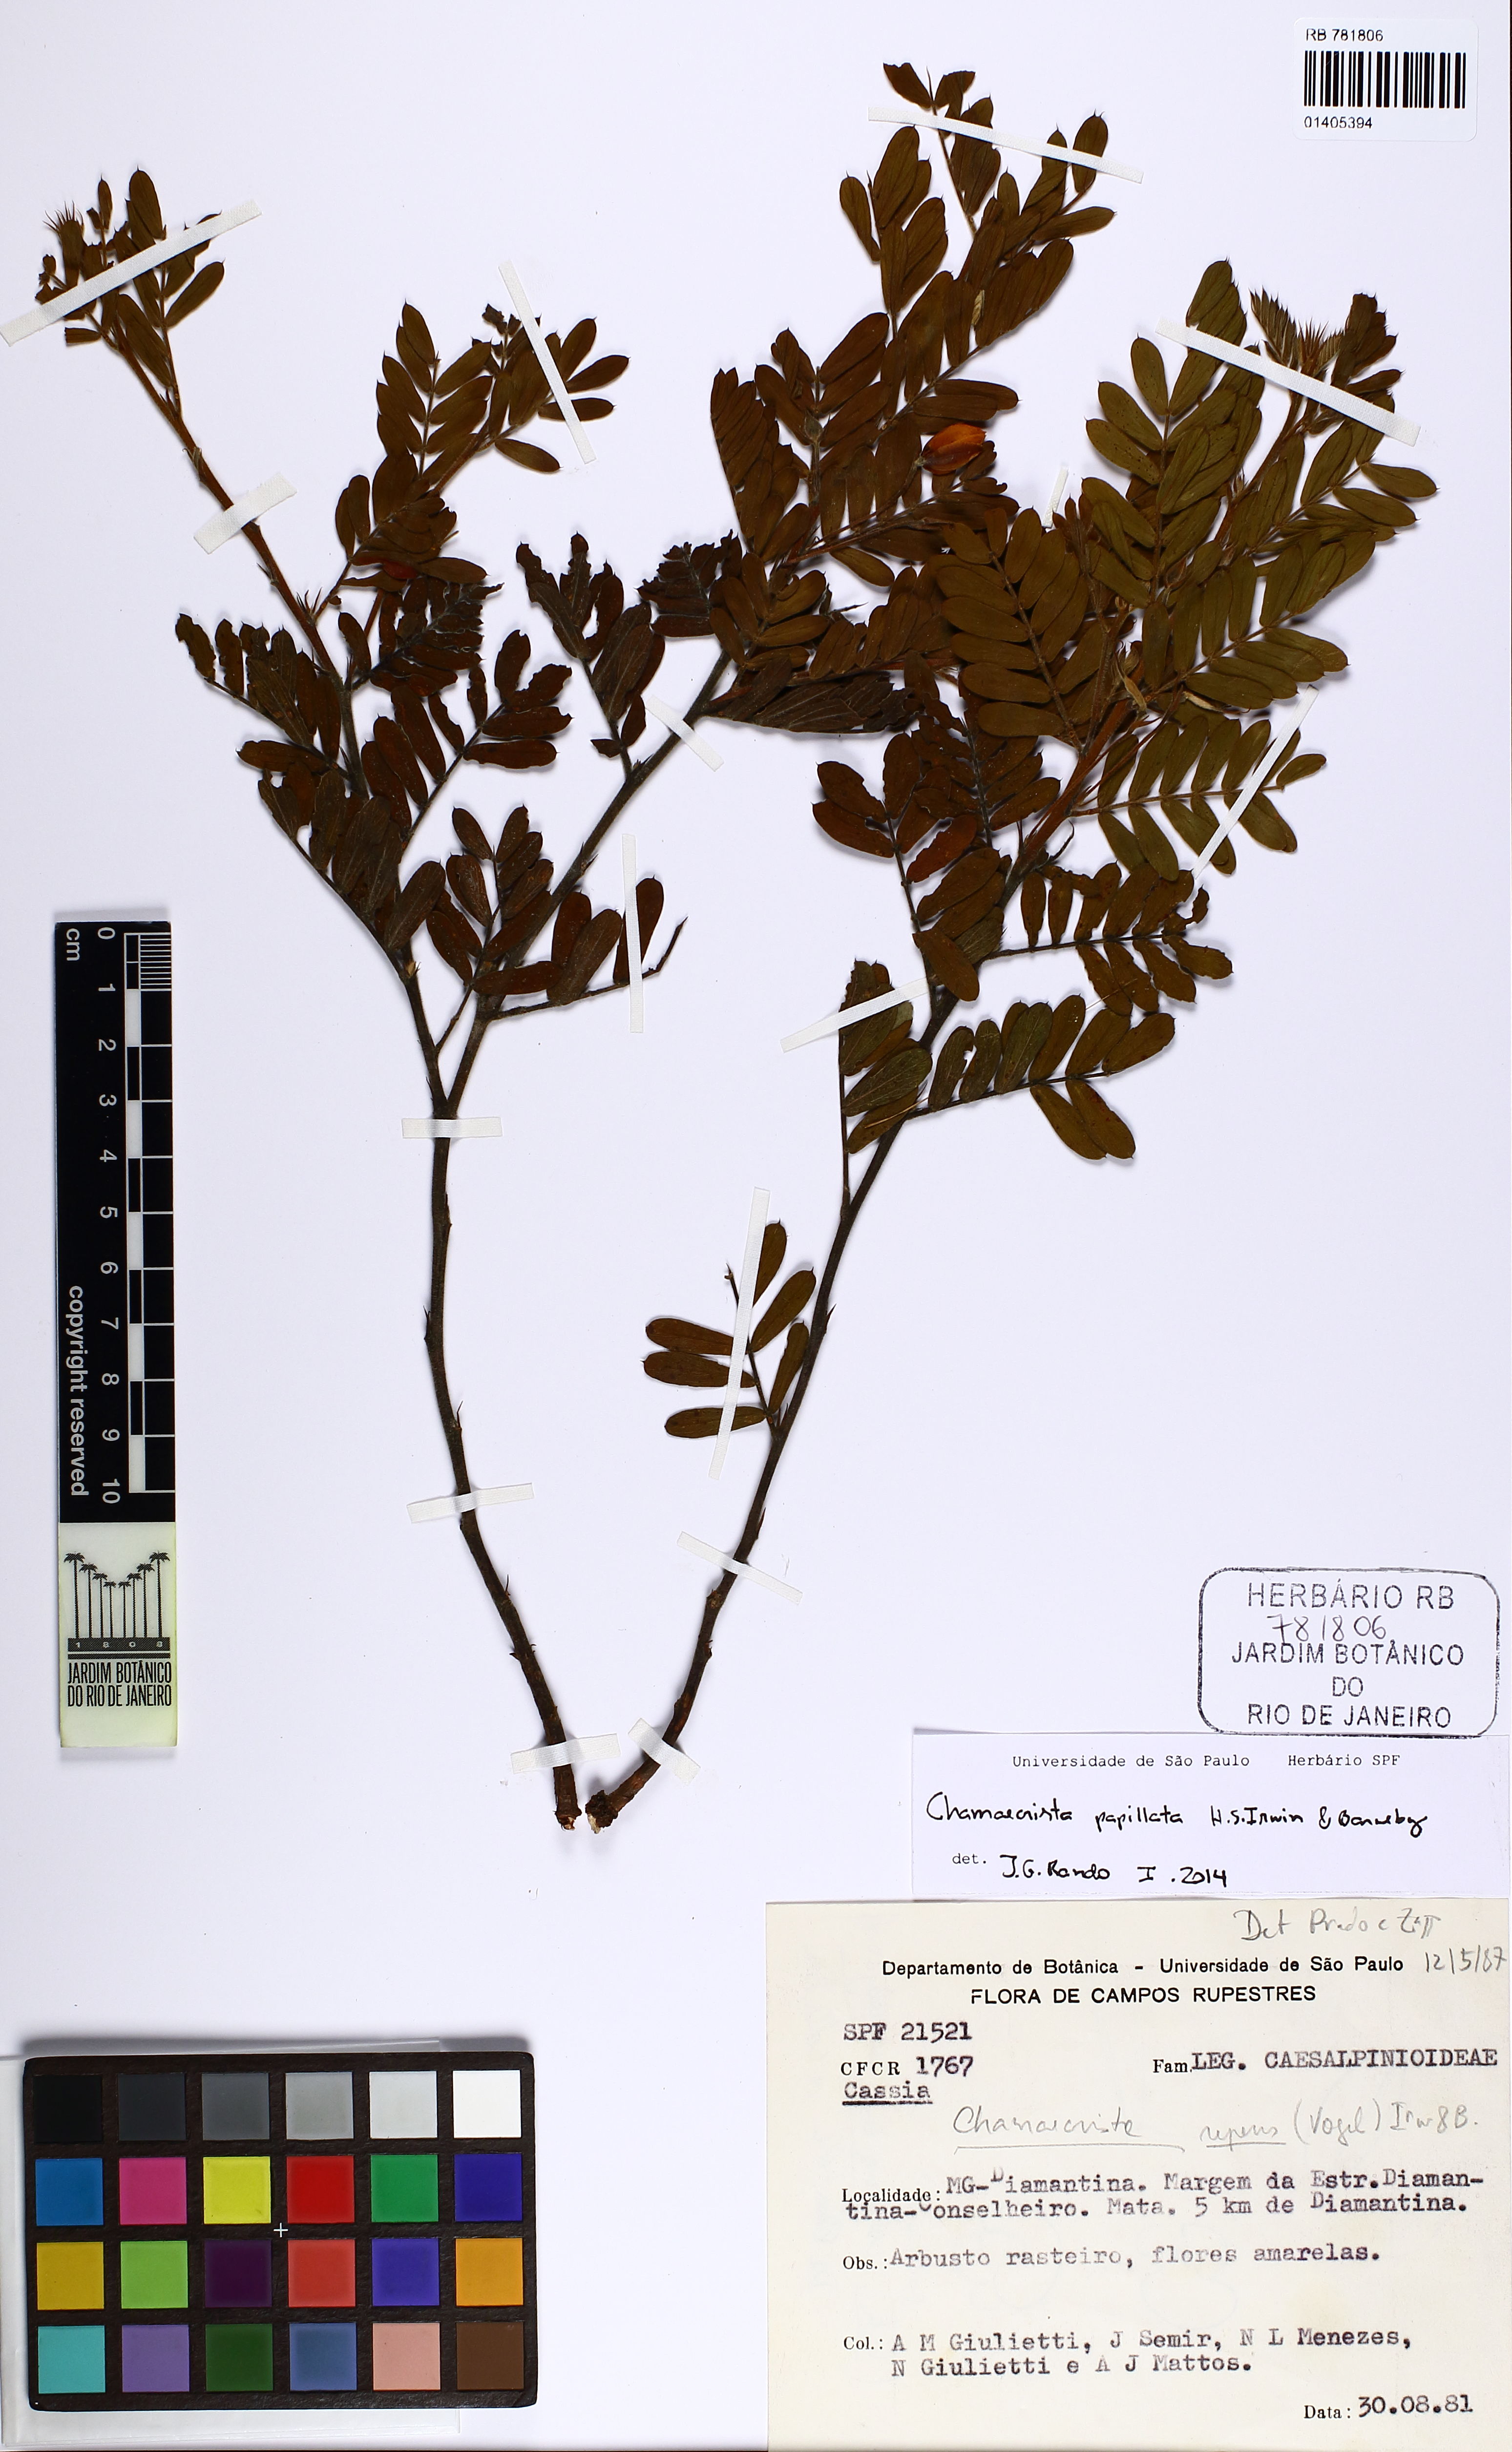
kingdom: Plantae
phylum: Tracheophyta
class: Magnoliopsida
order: Fabales
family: Fabaceae
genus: Chamaecrista
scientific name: Chamaecrista repens
